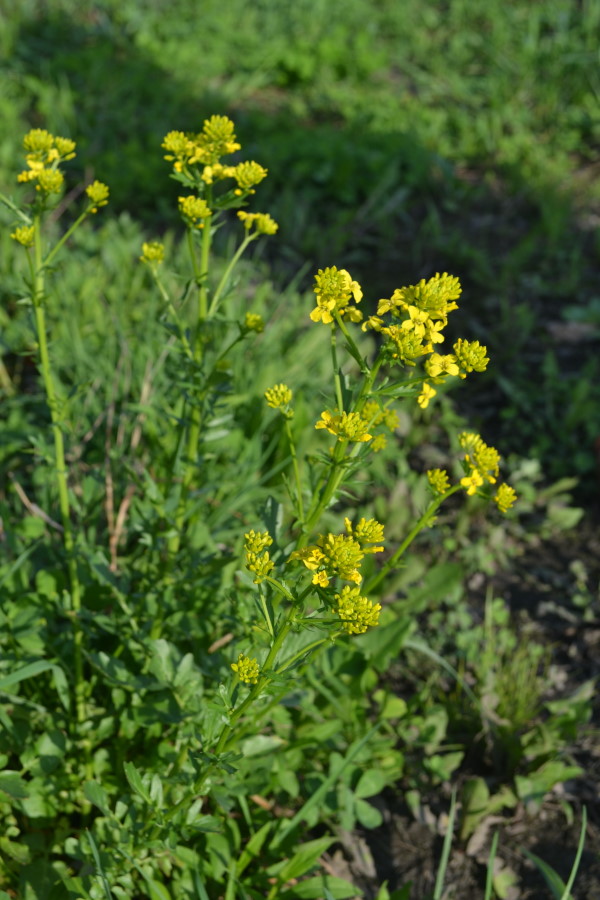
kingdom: Plantae
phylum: Tracheophyta
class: Magnoliopsida
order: Brassicales
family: Brassicaceae
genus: Barbarea
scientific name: Barbarea vulgaris
